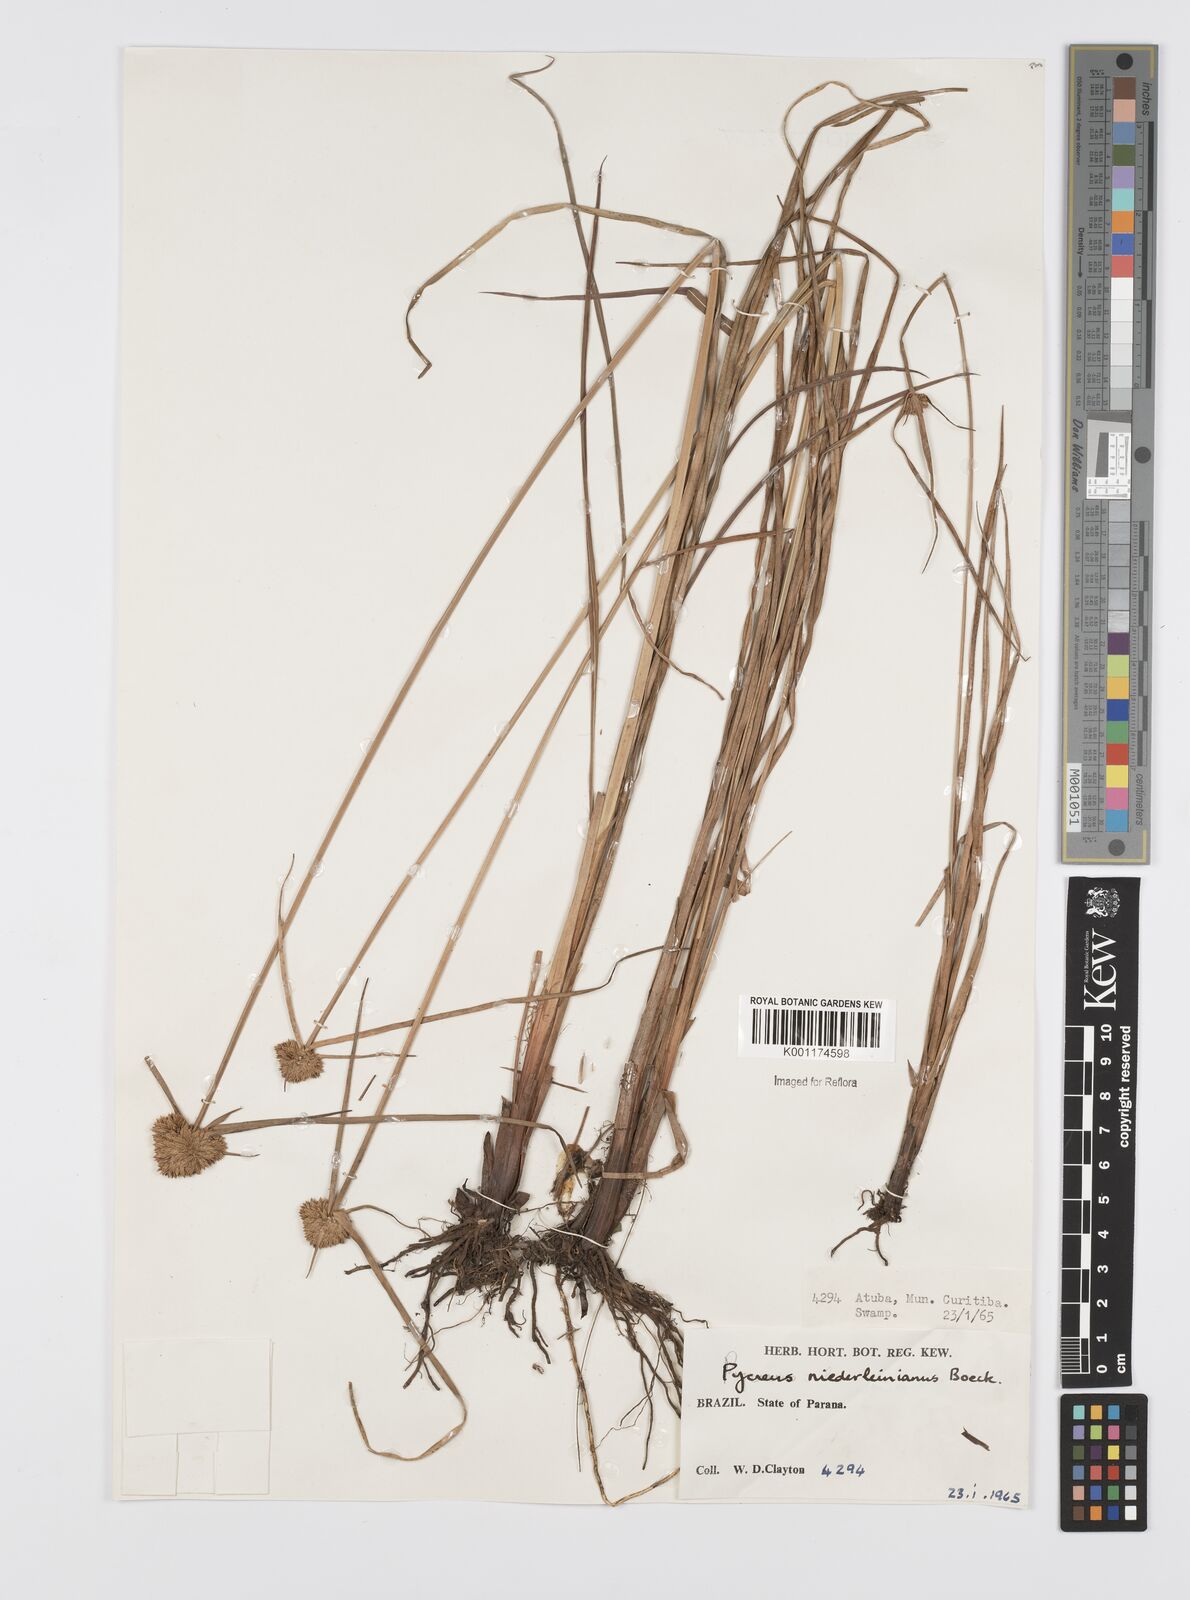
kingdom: Plantae
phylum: Tracheophyta
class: Liliopsida
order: Poales
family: Cyperaceae
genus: Cyperus
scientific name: Cyperus niederleinianus
